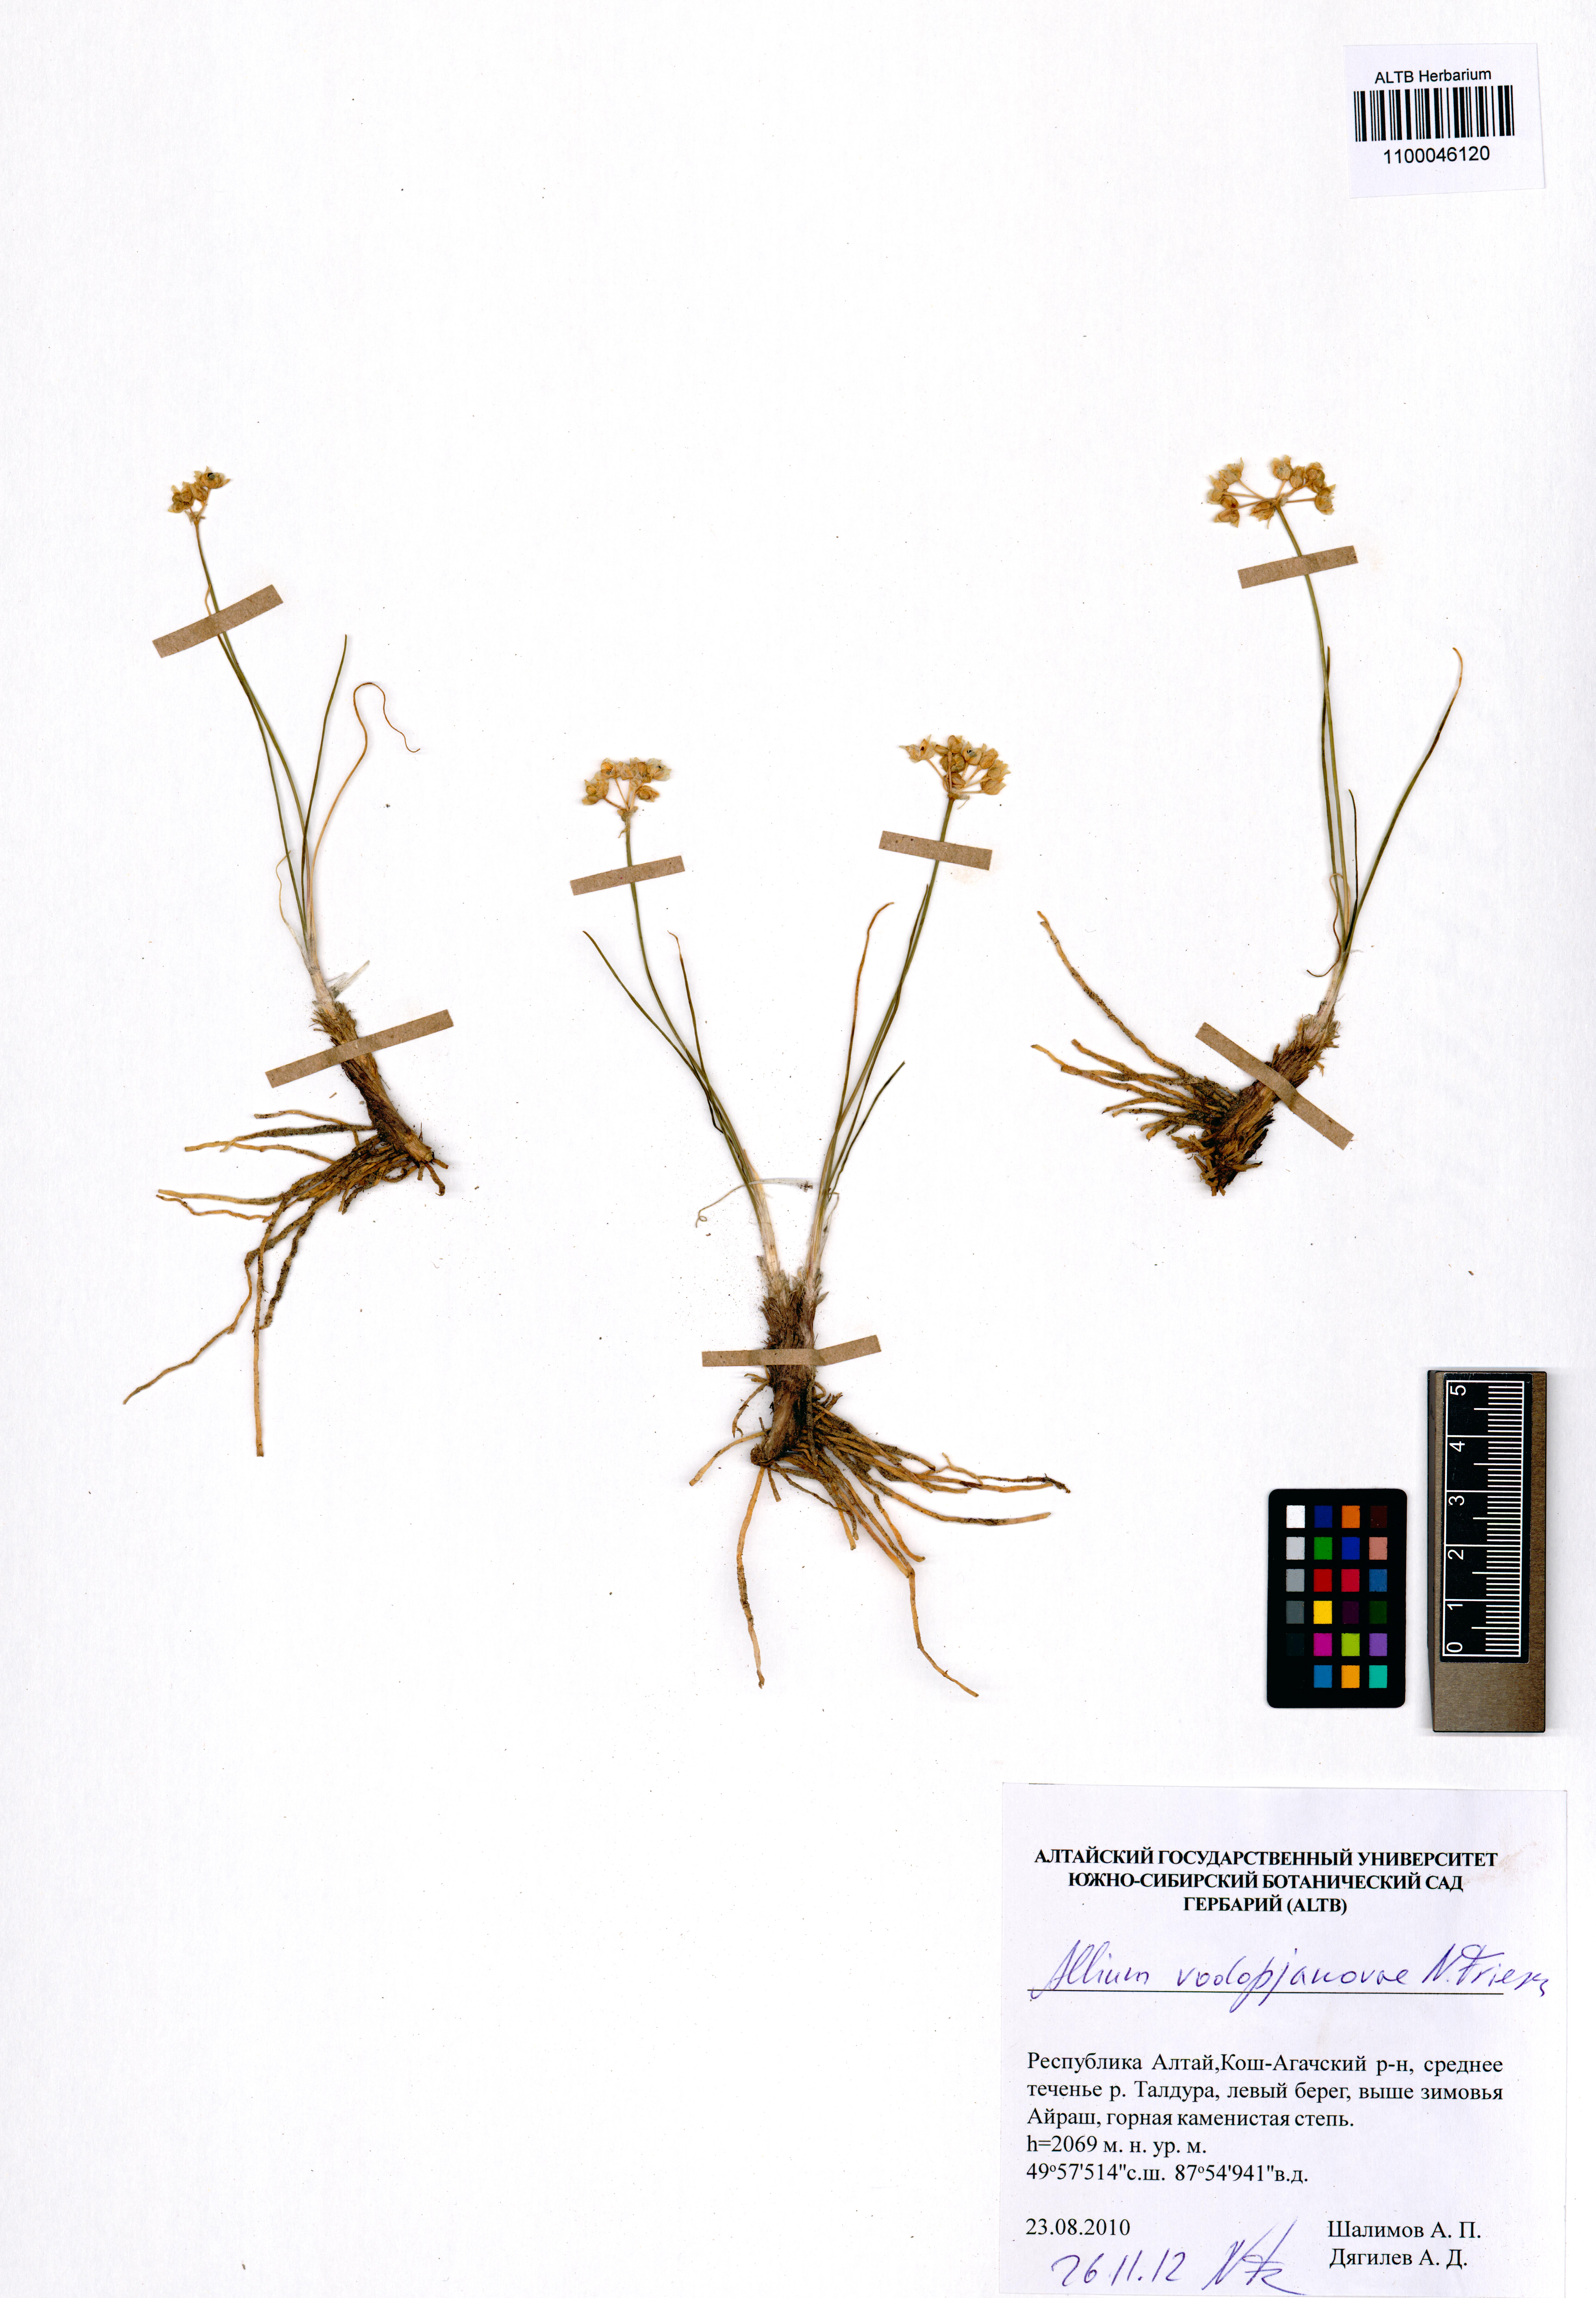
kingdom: Plantae
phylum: Tracheophyta
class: Liliopsida
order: Asparagales
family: Amaryllidaceae
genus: Allium
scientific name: Allium vodopjanovae
